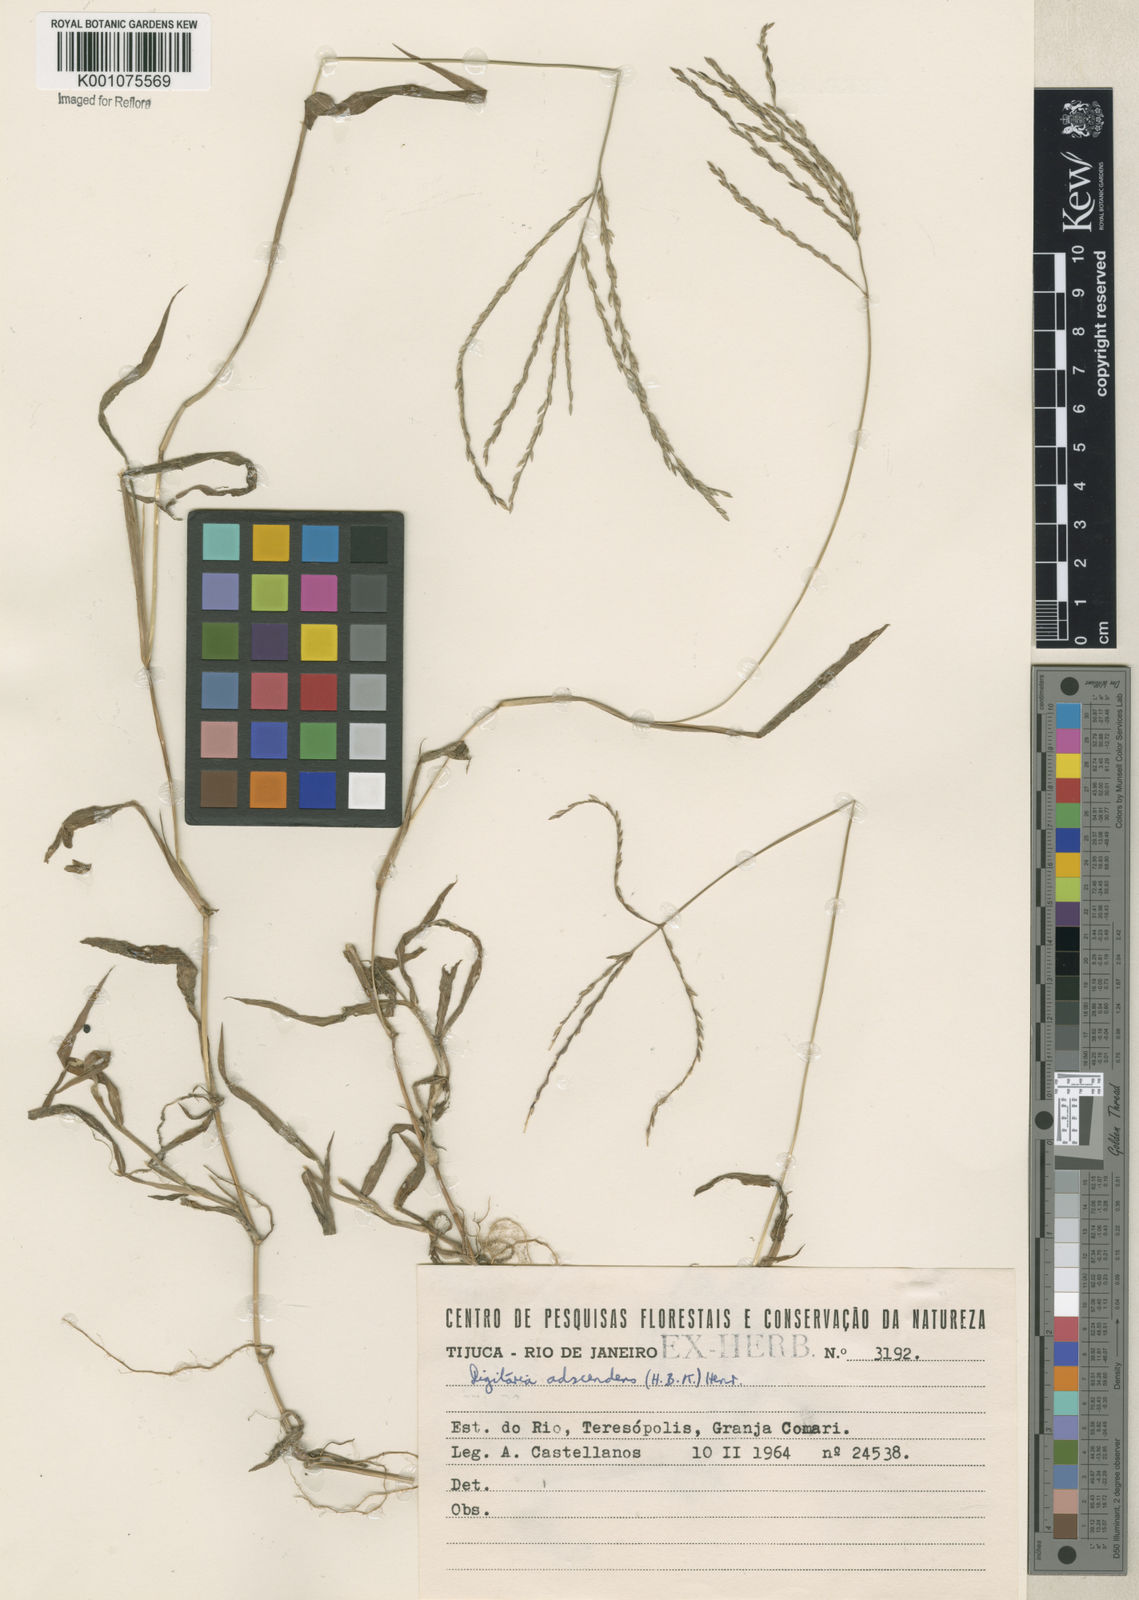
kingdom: Plantae
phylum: Tracheophyta
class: Liliopsida
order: Poales
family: Poaceae
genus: Digitaria
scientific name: Digitaria ciliaris
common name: Tropical finger-grass
